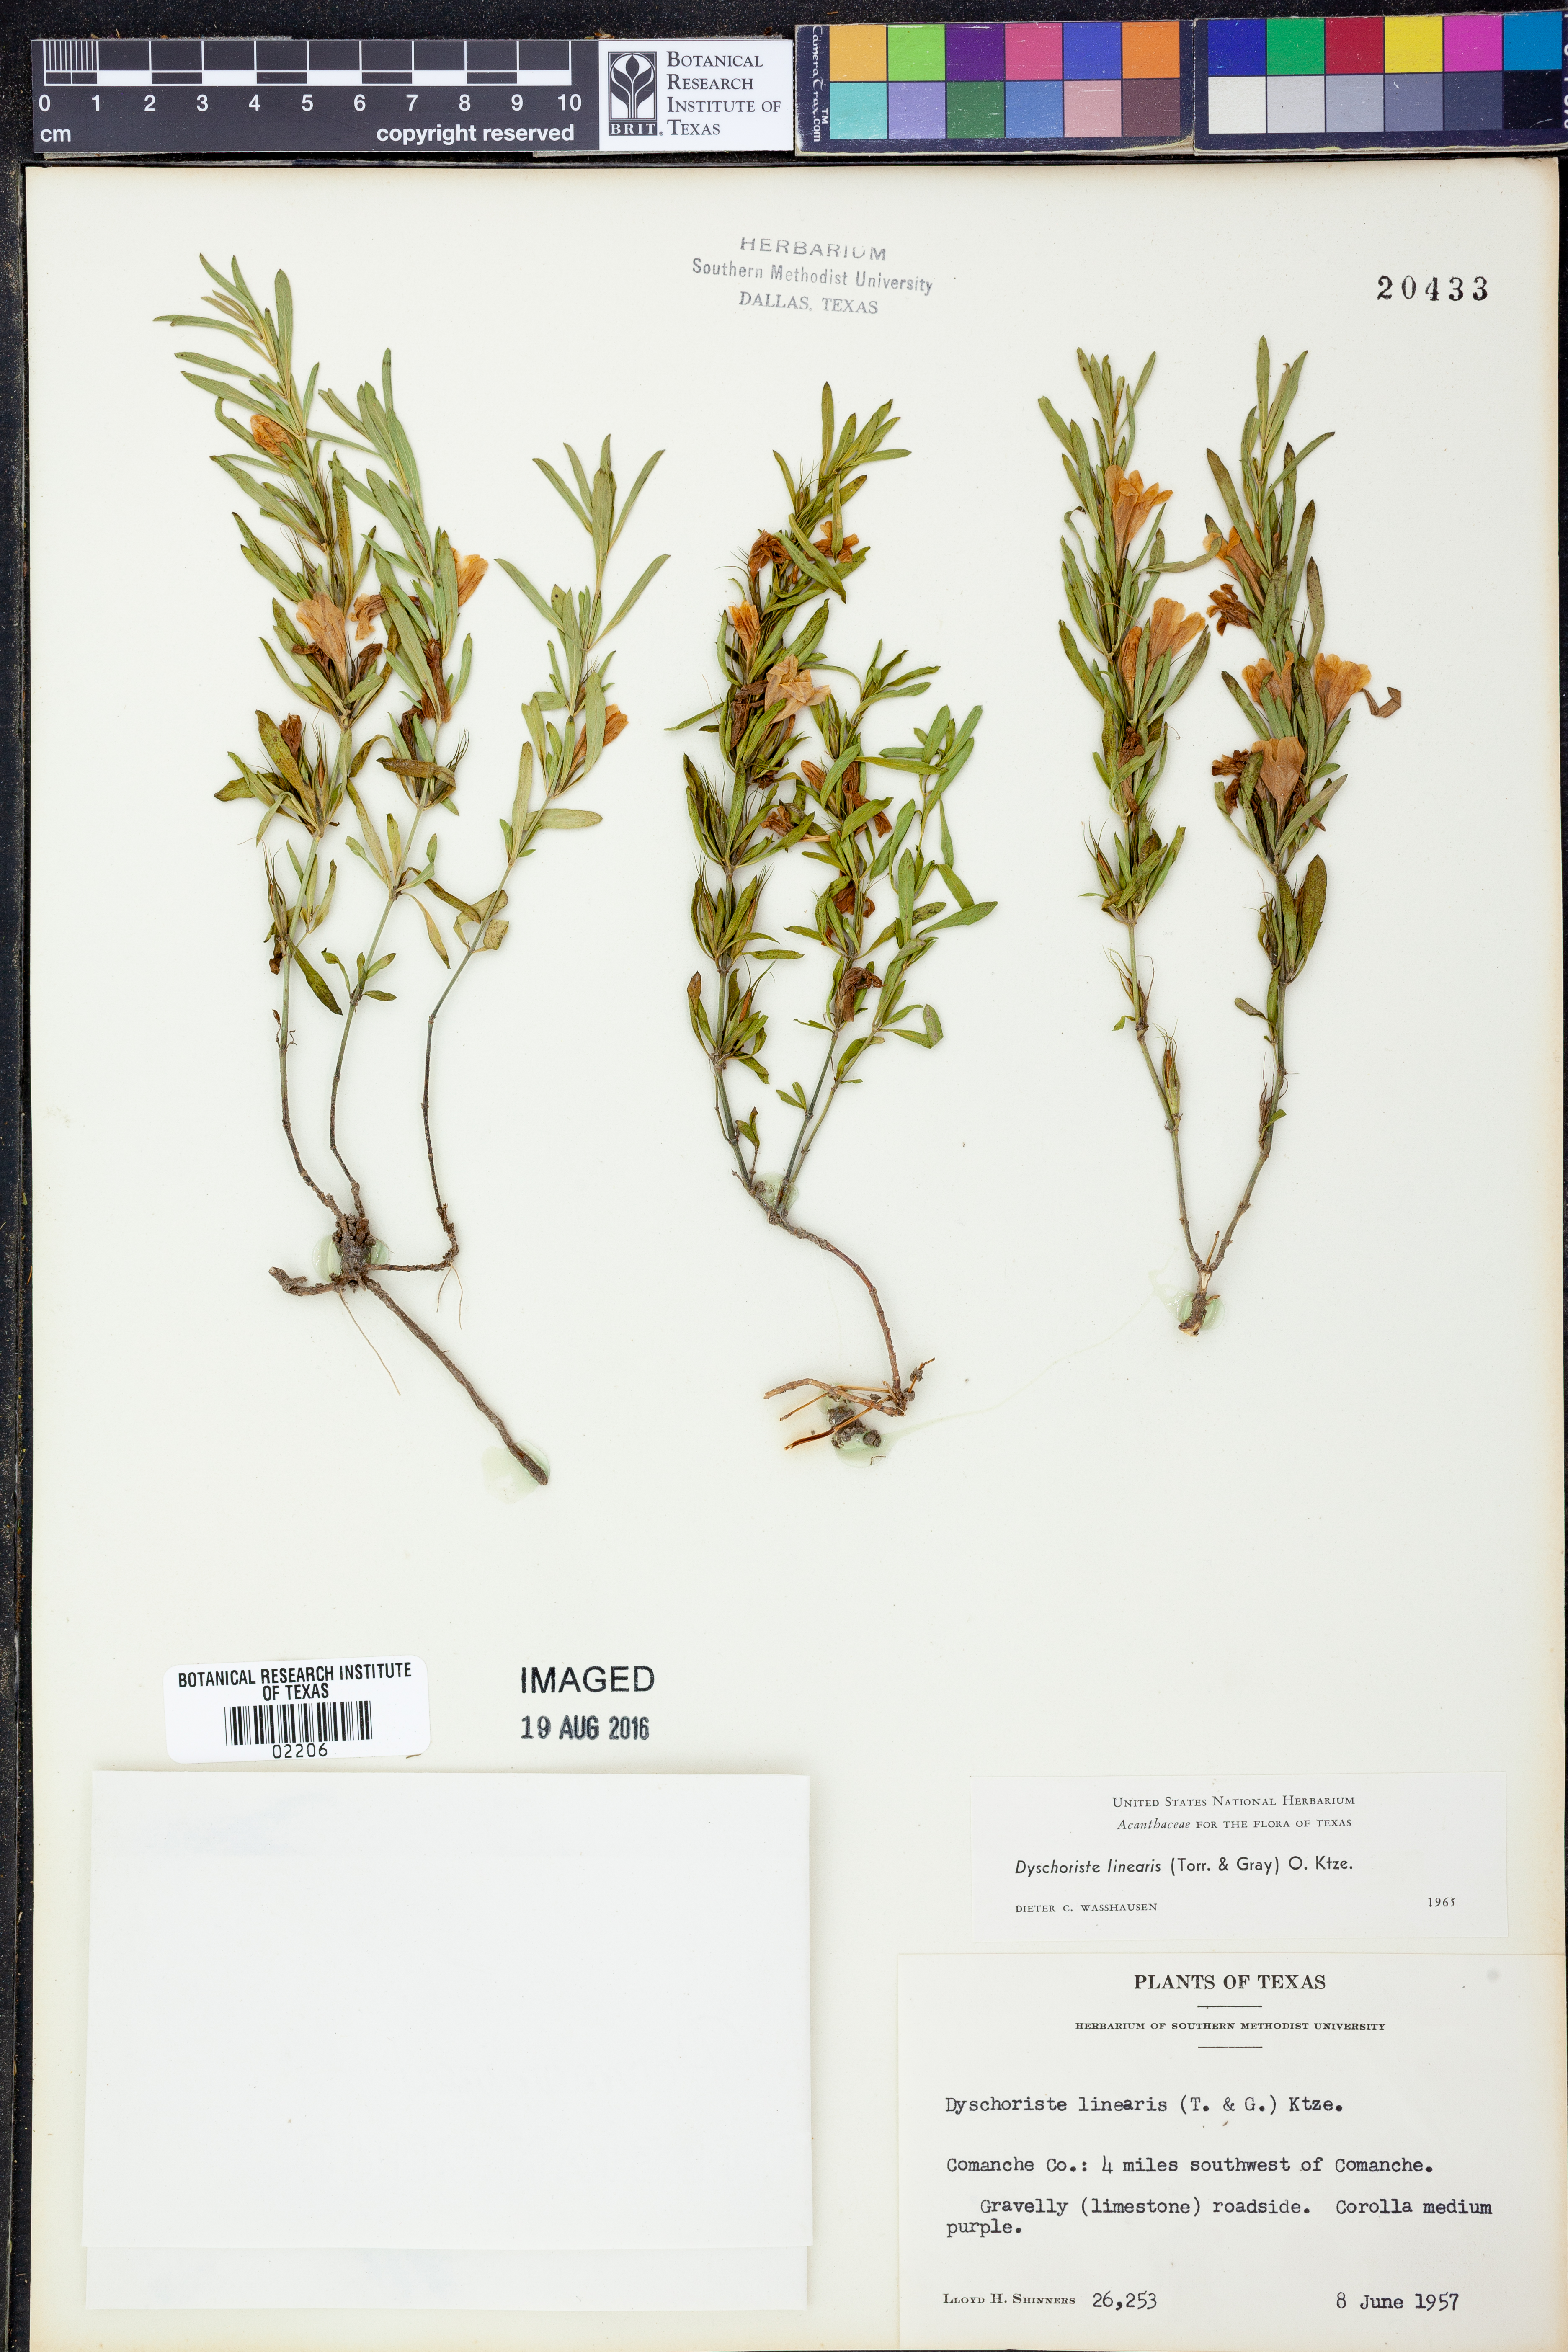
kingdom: Plantae
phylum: Tracheophyta
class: Magnoliopsida
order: Lamiales
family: Acanthaceae
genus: Dyschoriste
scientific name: Dyschoriste linearis
